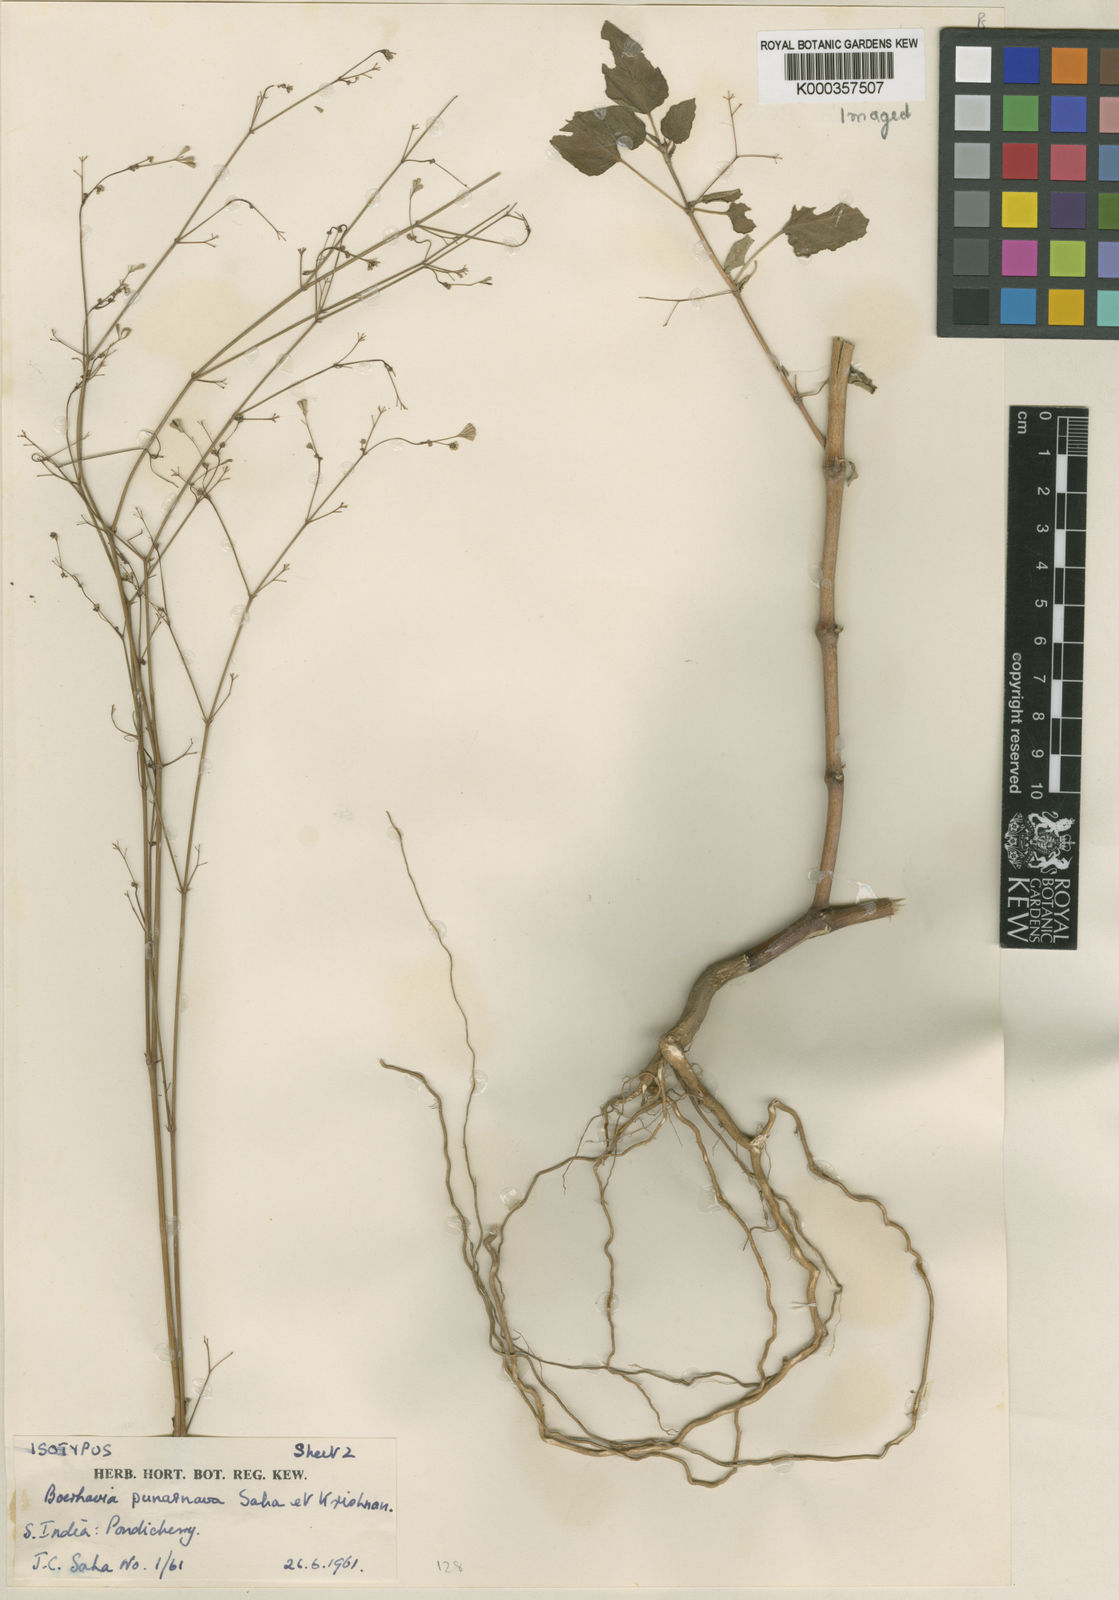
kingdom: Plantae
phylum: Tracheophyta
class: Magnoliopsida
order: Caryophyllales
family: Nyctaginaceae
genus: Boerhavia
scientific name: Boerhavia erecta
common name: Erect spiderling
